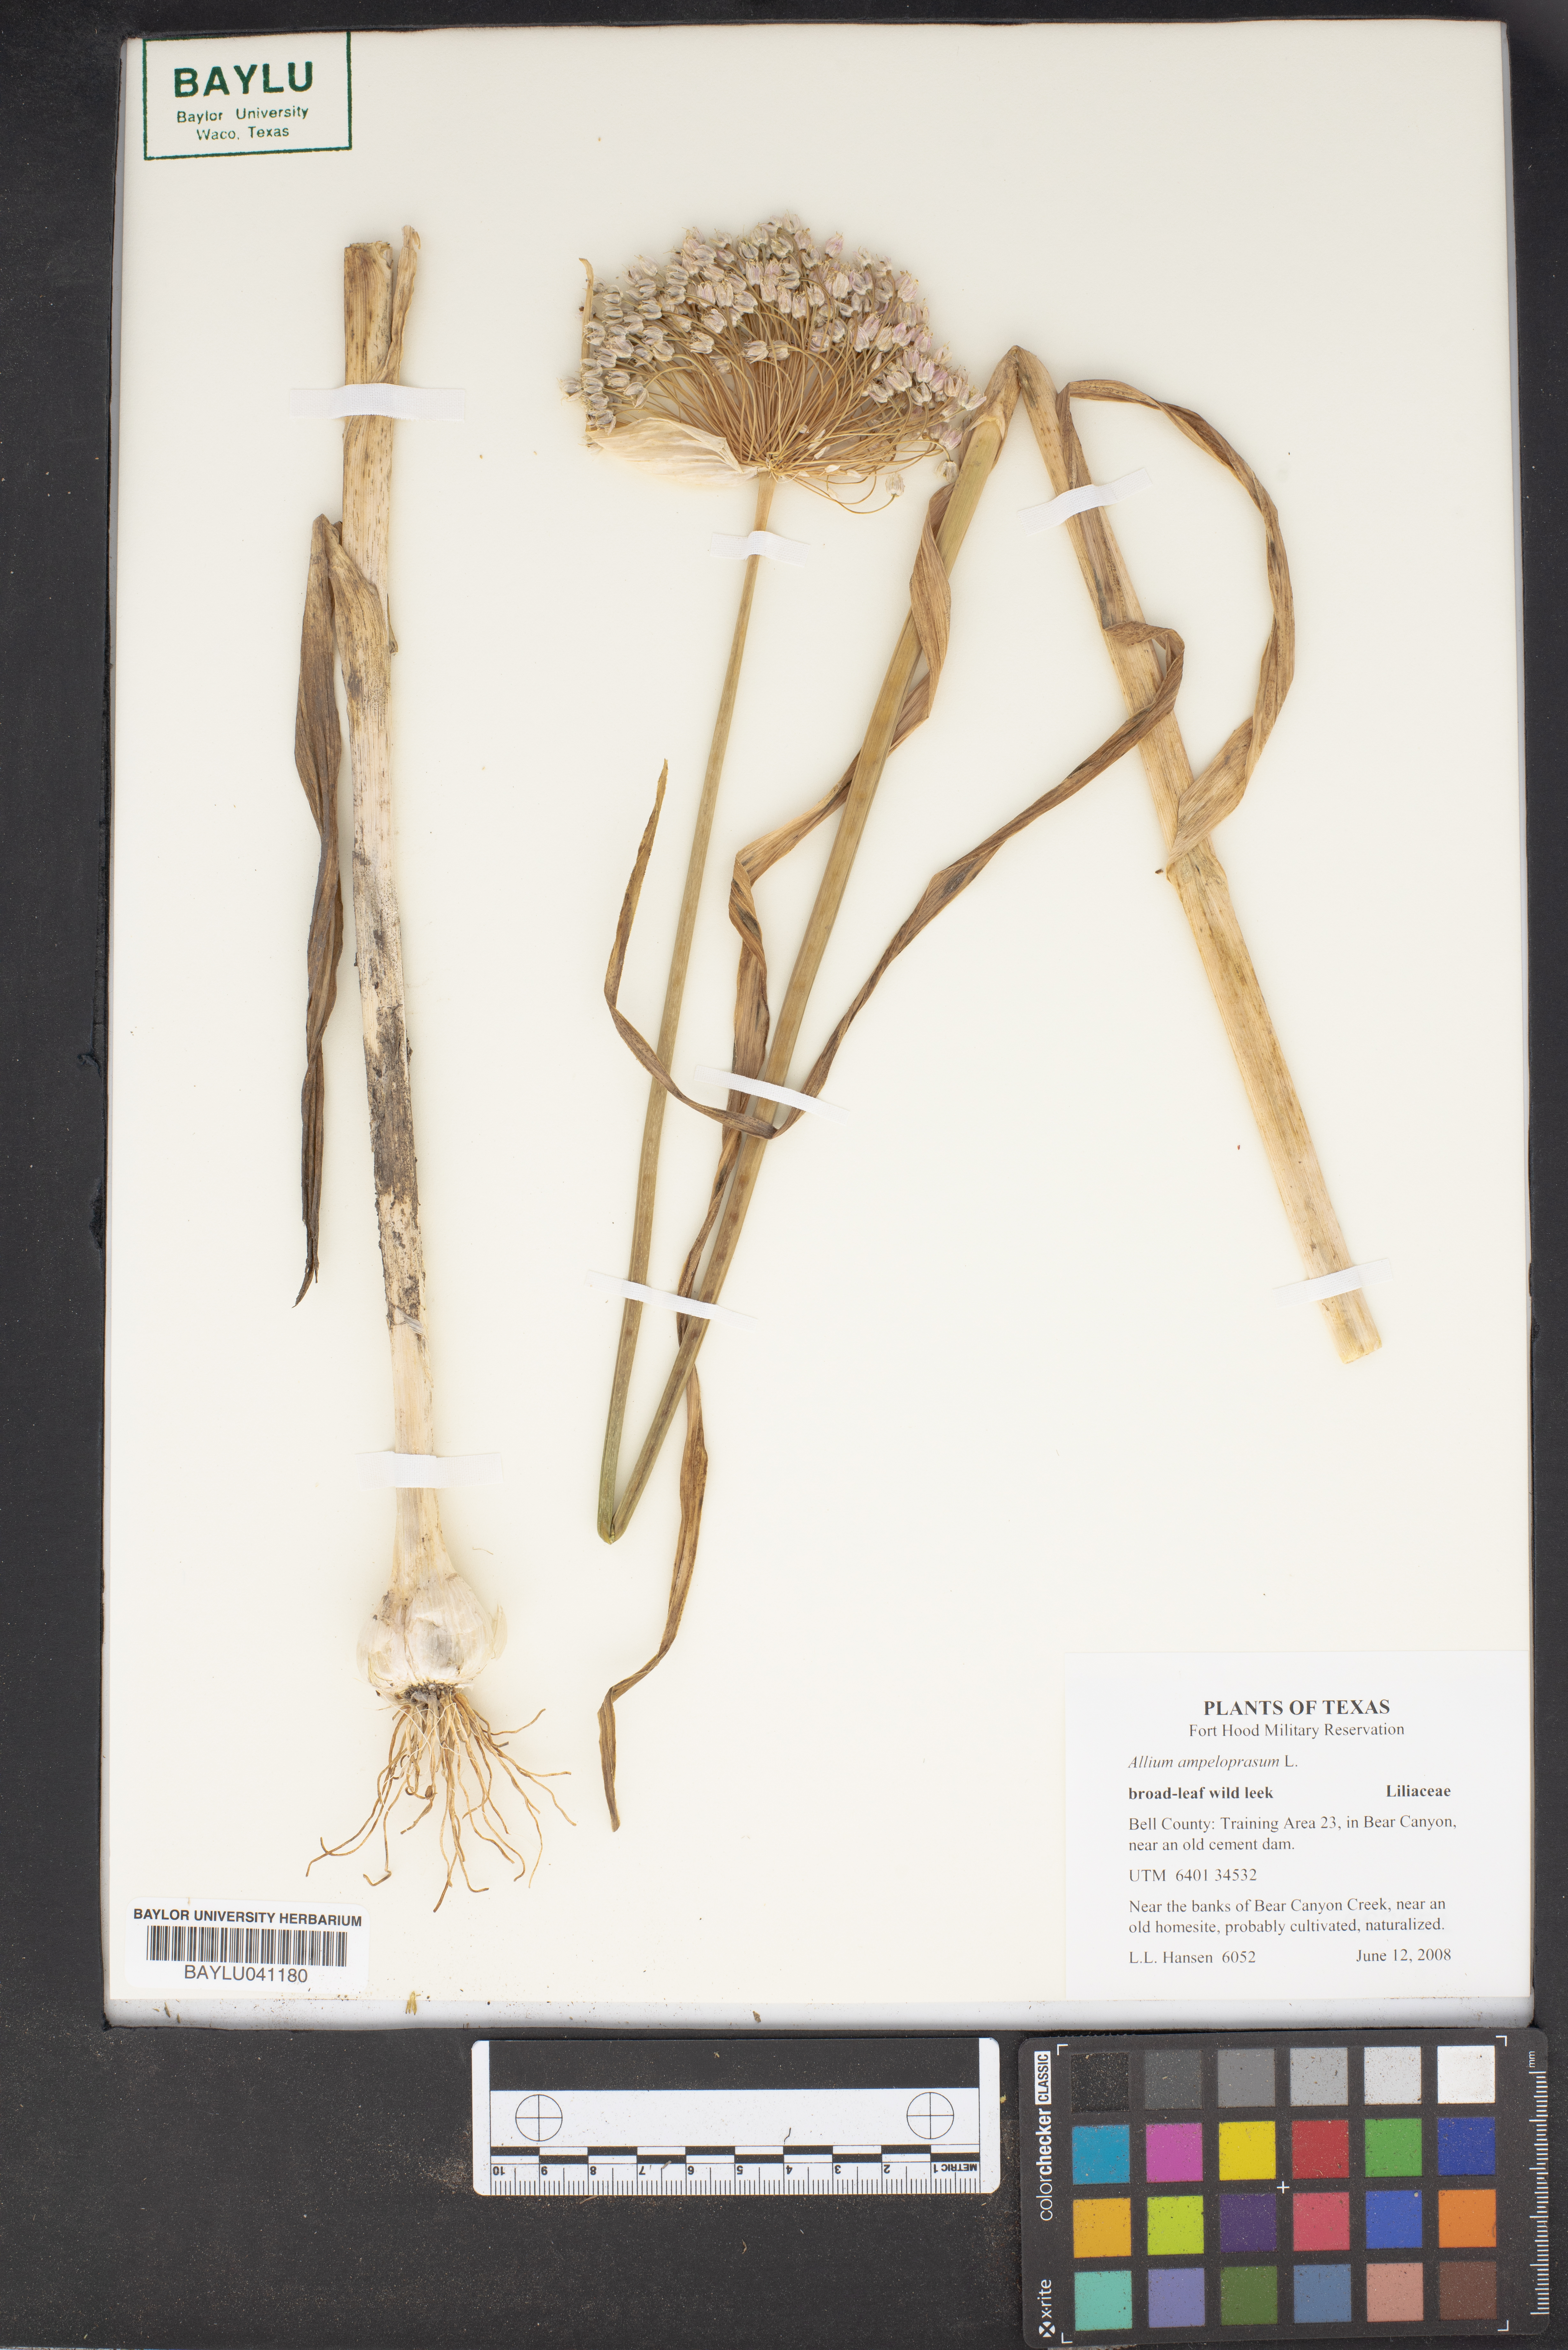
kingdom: Plantae
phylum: Tracheophyta
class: Liliopsida
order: Asparagales
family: Amaryllidaceae
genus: Allium
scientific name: Allium ampeloprasum
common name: Wild leek
